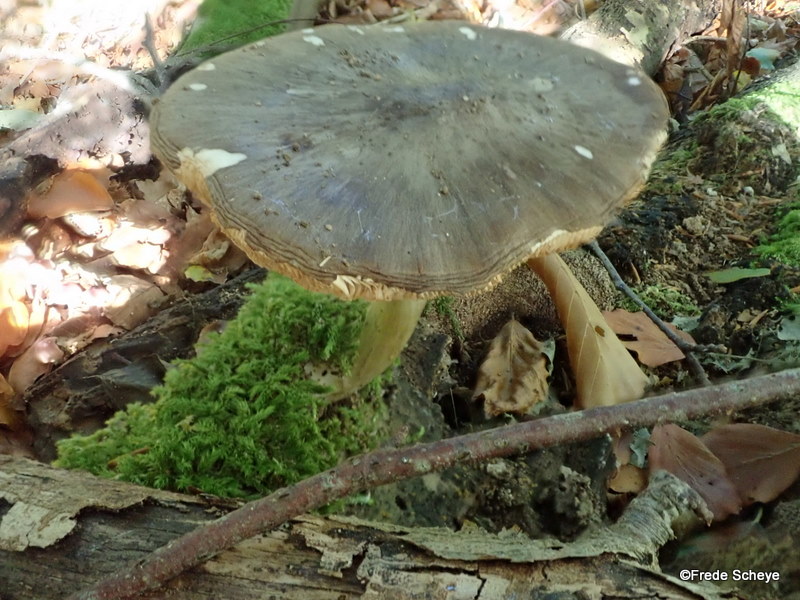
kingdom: Fungi
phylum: Basidiomycota
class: Agaricomycetes
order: Agaricales
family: Pluteaceae
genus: Pluteus
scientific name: Pluteus cervinus
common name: sodfarvet skærmhat
